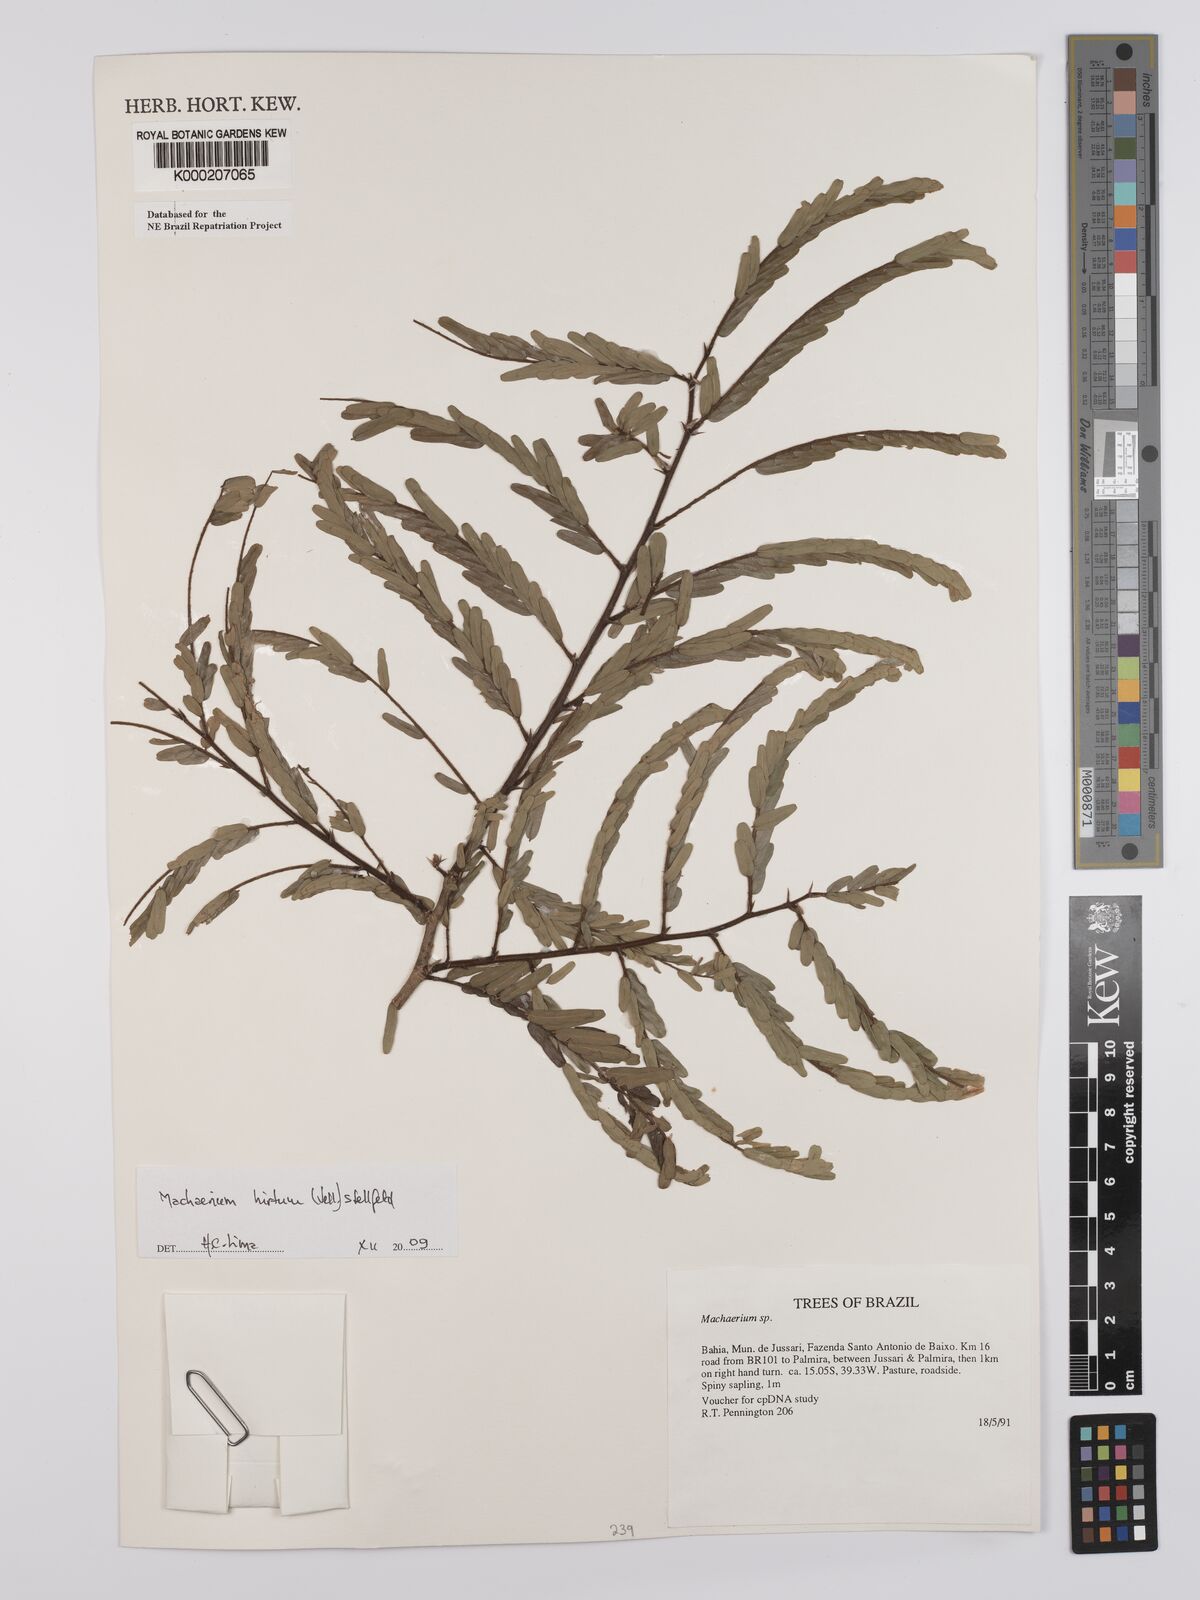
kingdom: Plantae
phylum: Tracheophyta
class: Magnoliopsida
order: Fabales
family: Fabaceae
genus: Machaerium
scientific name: Machaerium
